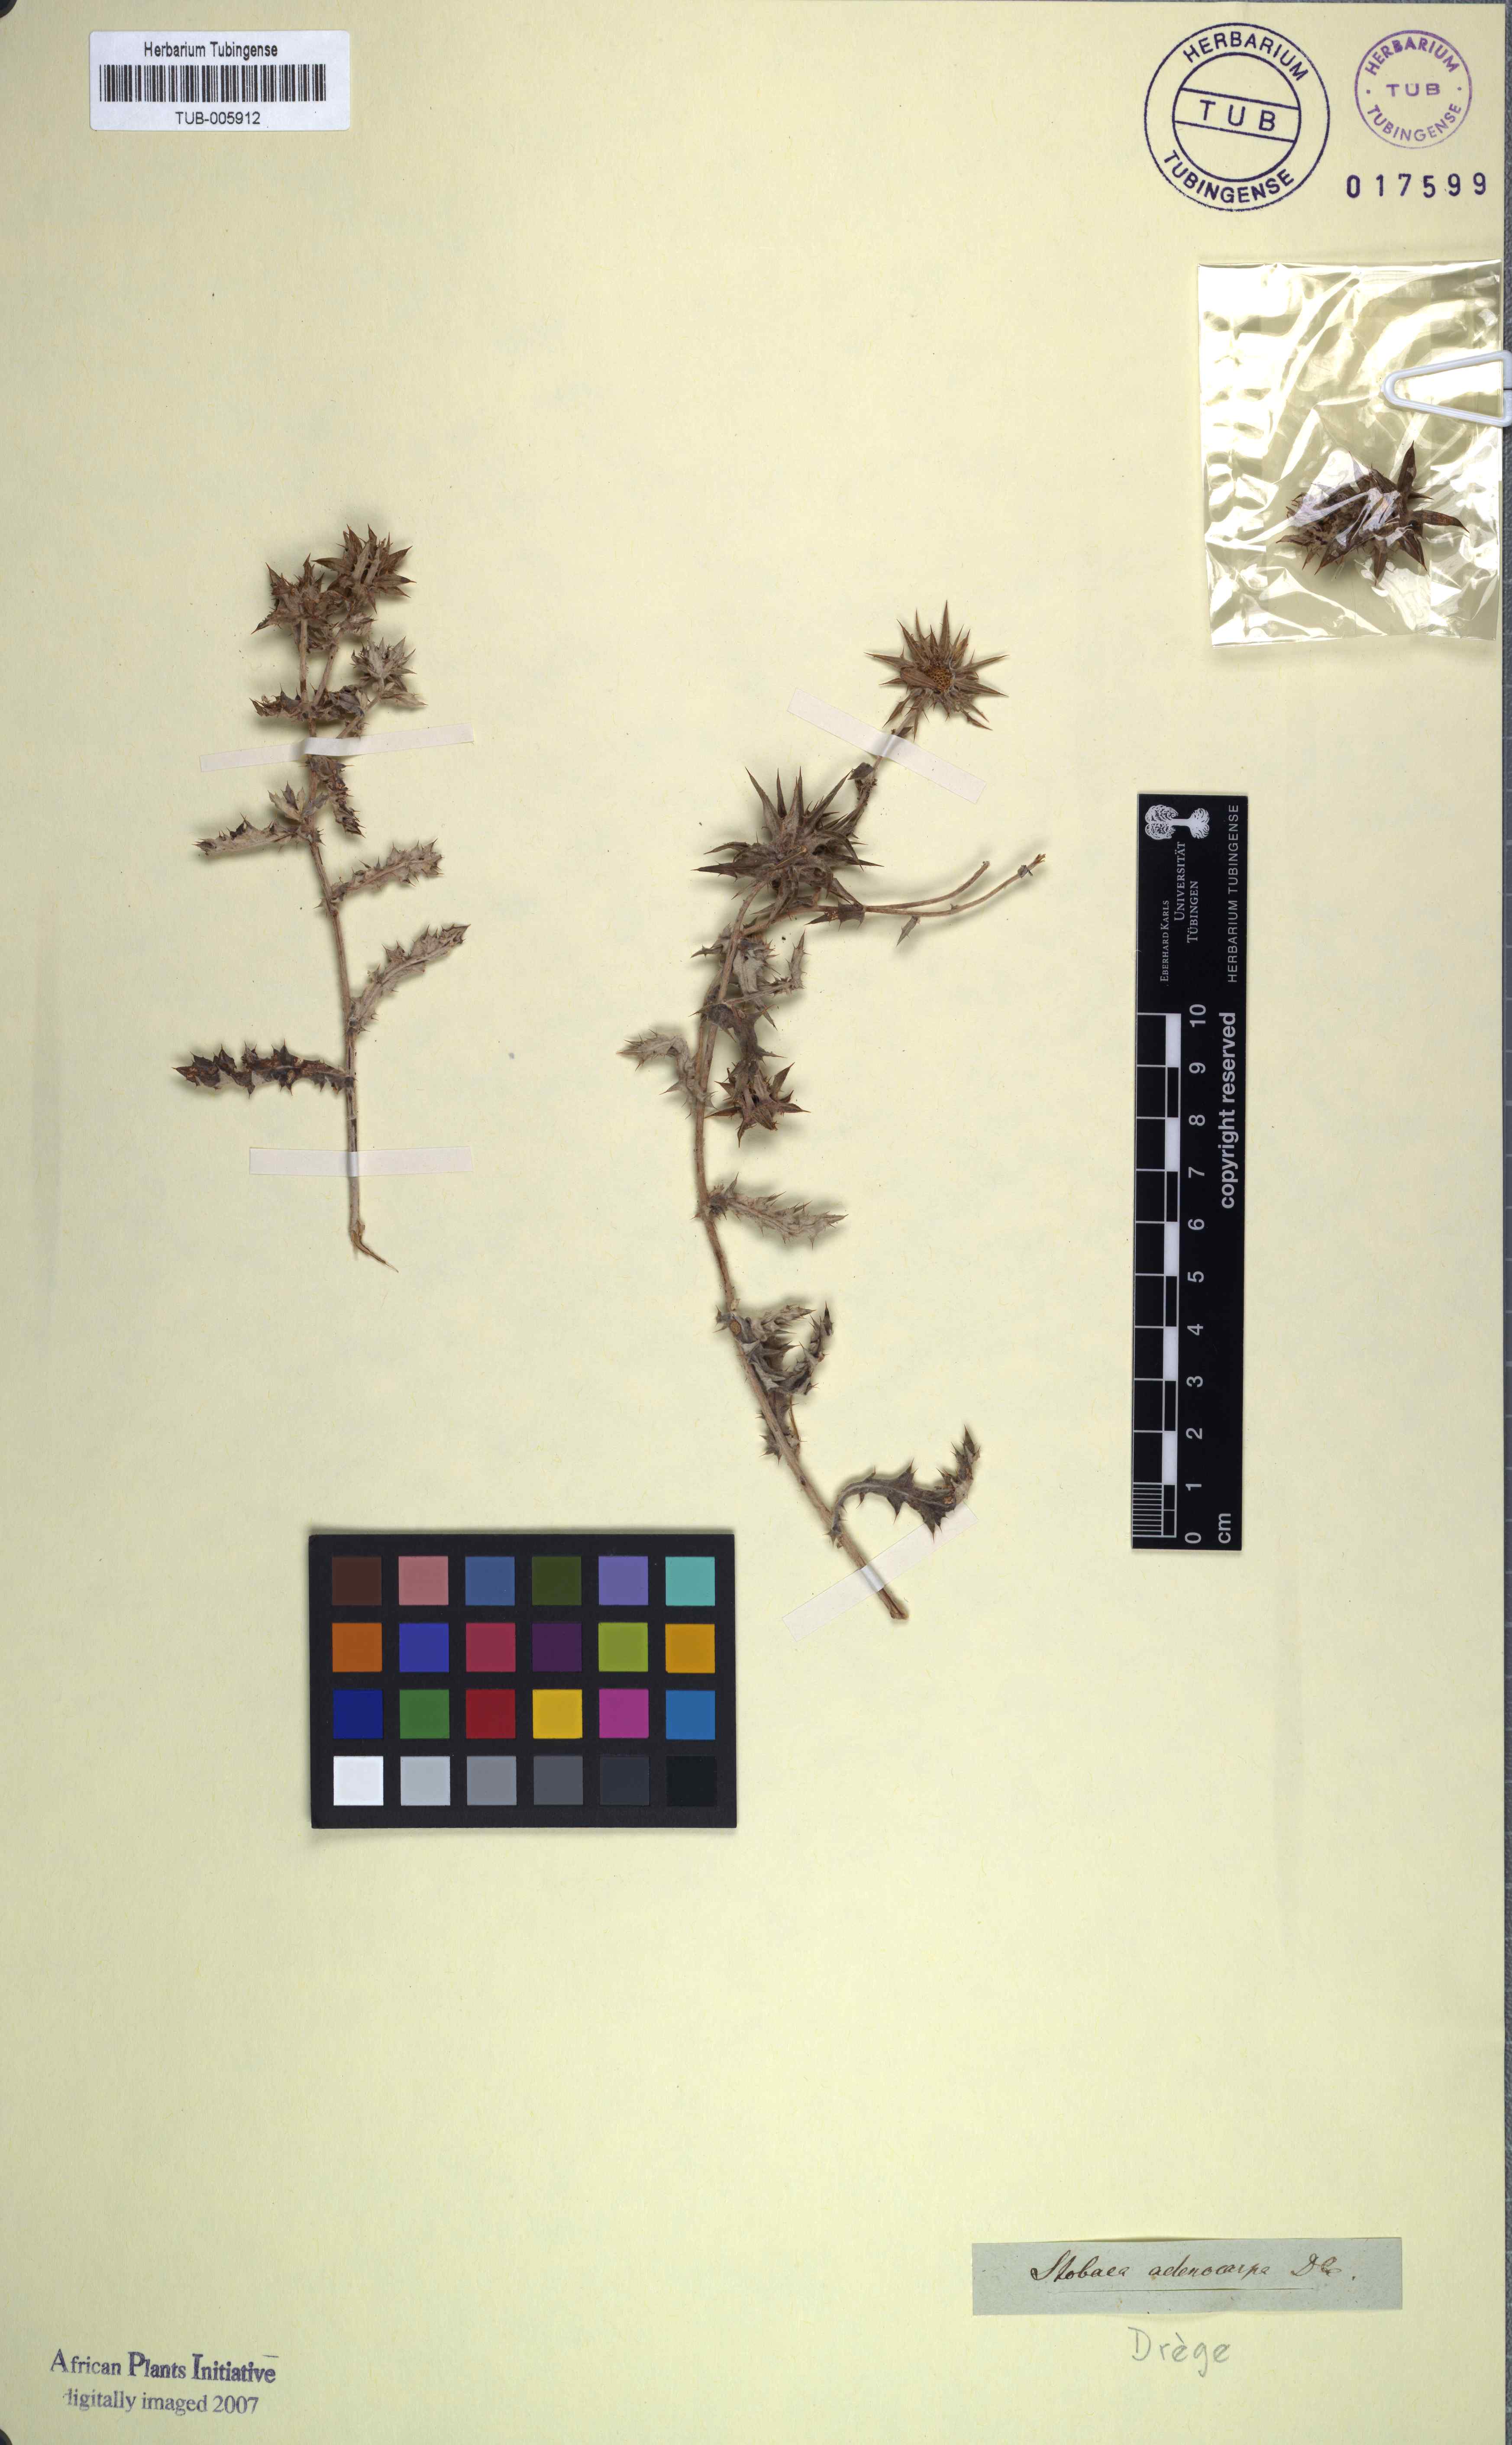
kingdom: Plantae
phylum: Tracheophyta
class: Magnoliopsida
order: Asterales
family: Asteraceae
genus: Berkheya
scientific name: Berkheya fruticosa
